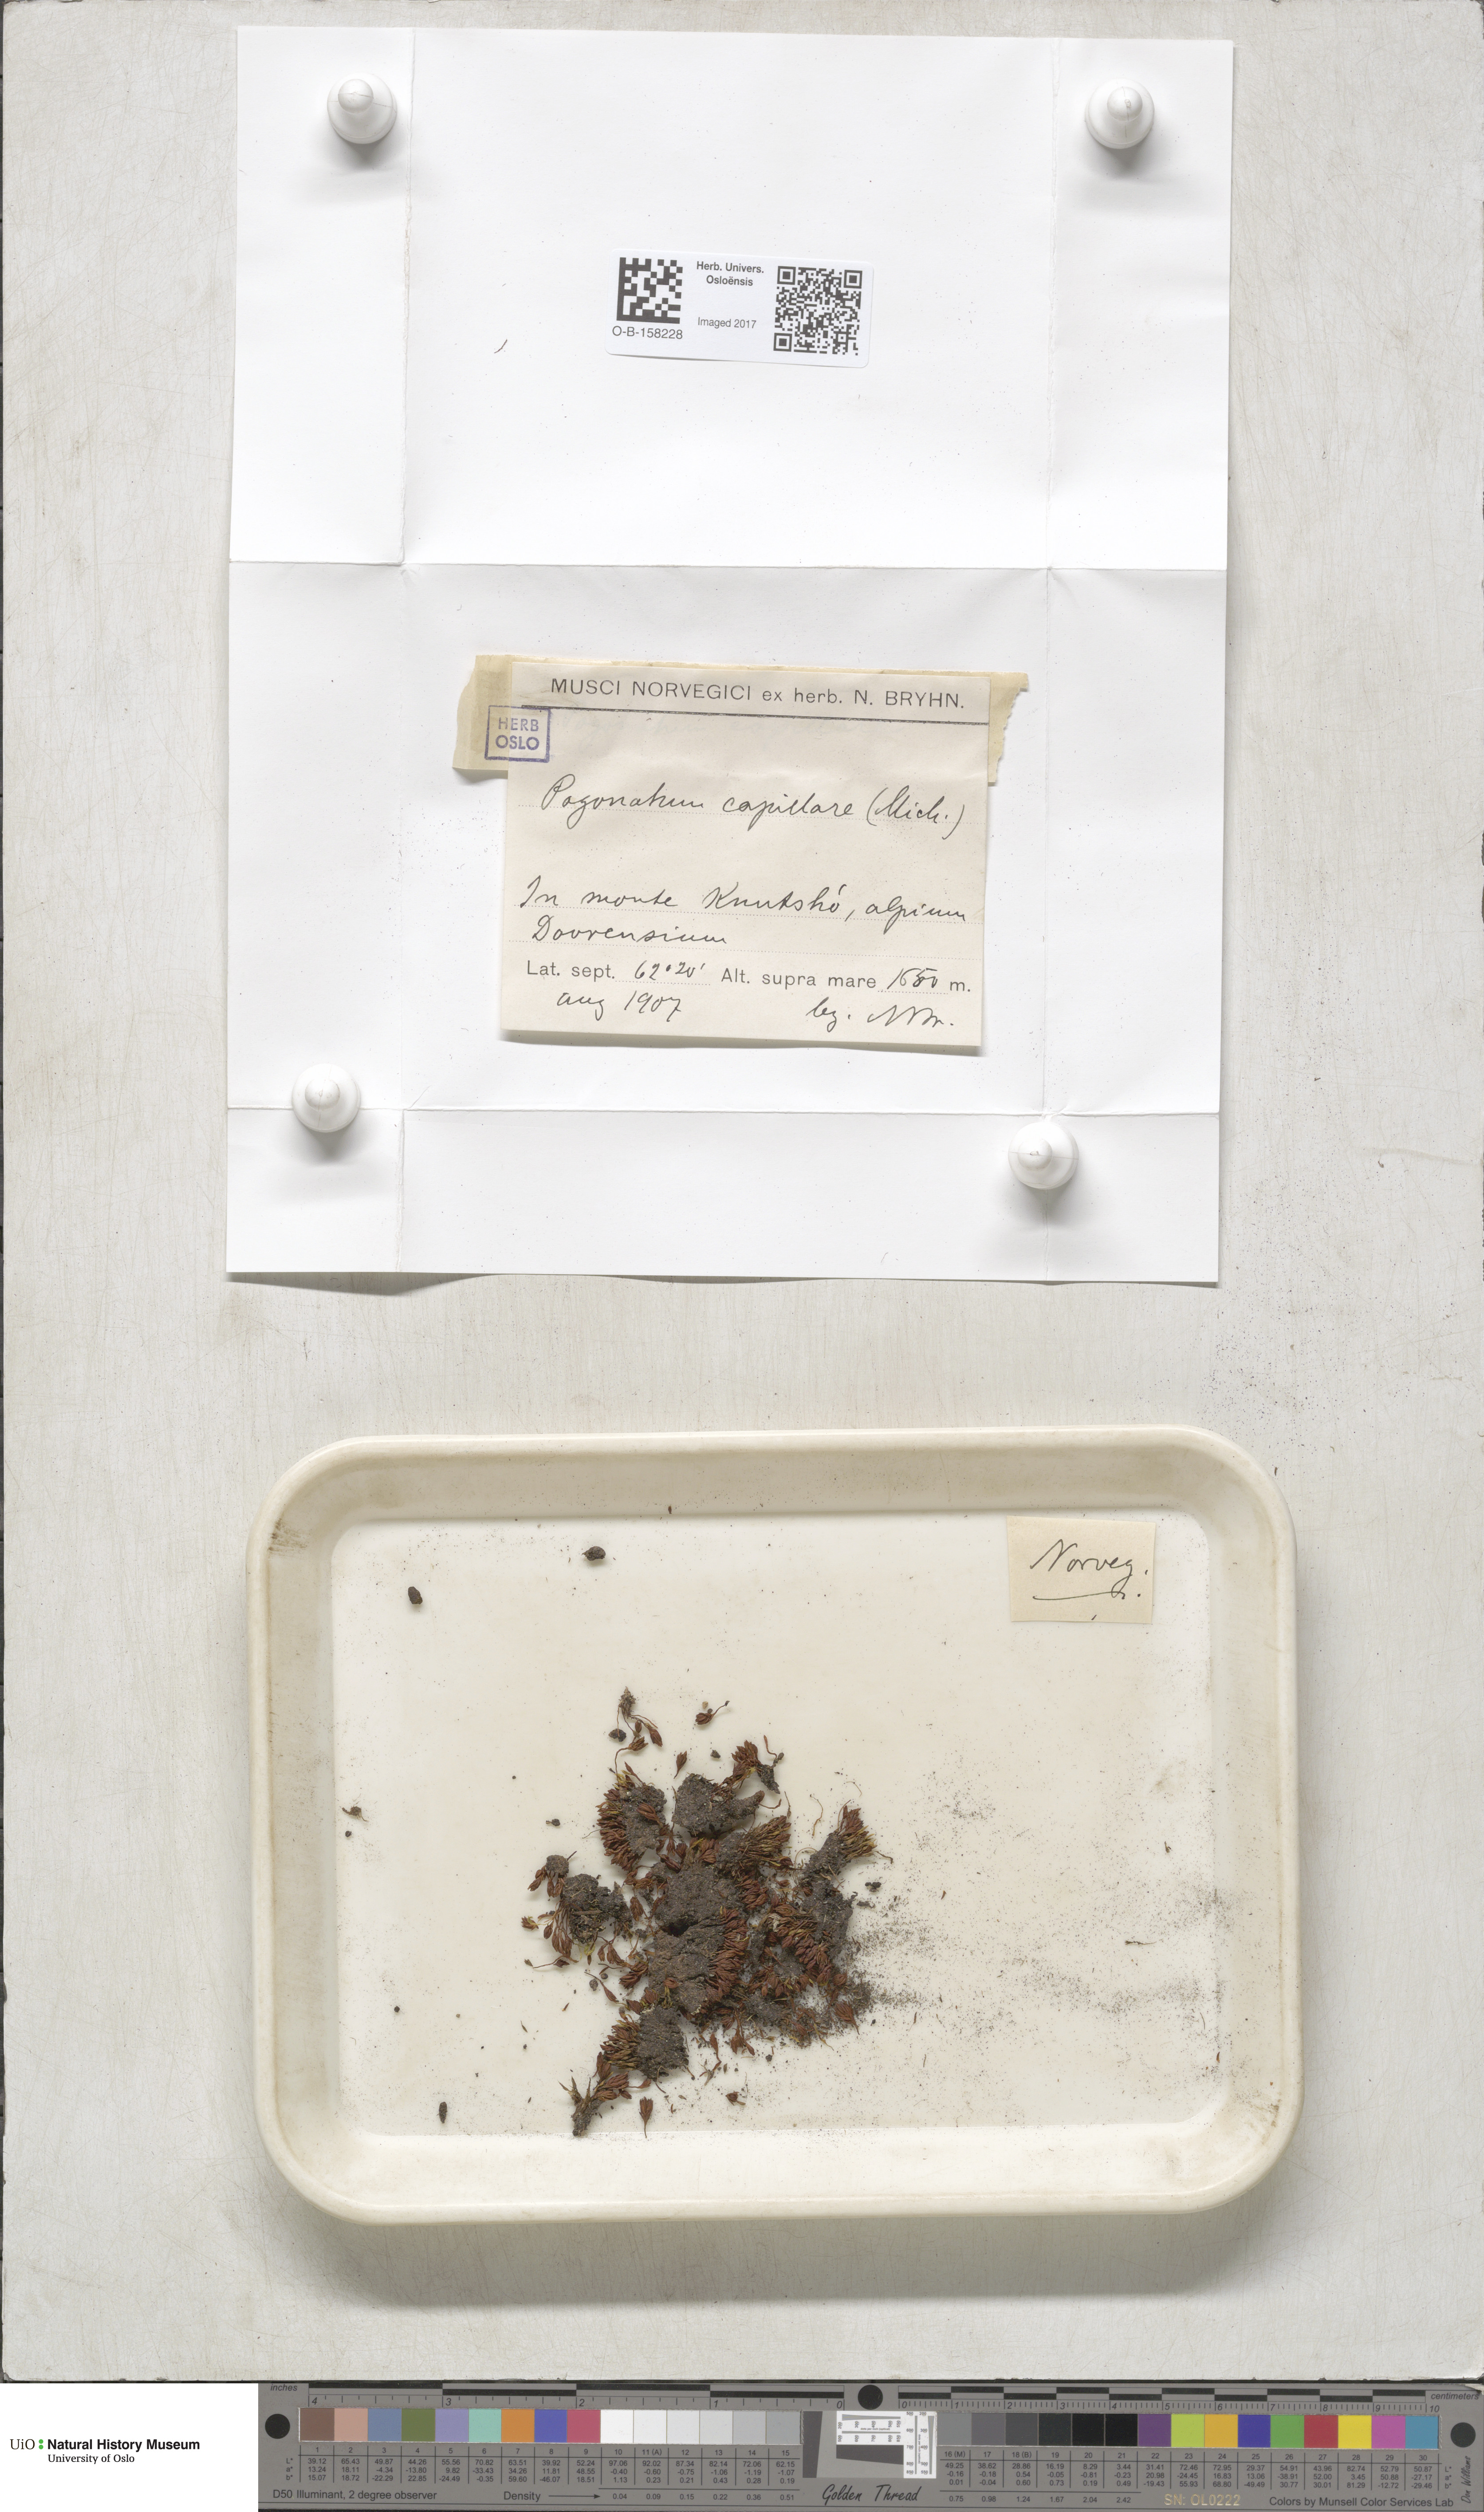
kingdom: Plantae
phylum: Bryophyta
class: Polytrichopsida
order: Polytrichales
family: Polytrichaceae
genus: Pogonatum
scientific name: Pogonatum dentatum
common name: Mountain hair moss
